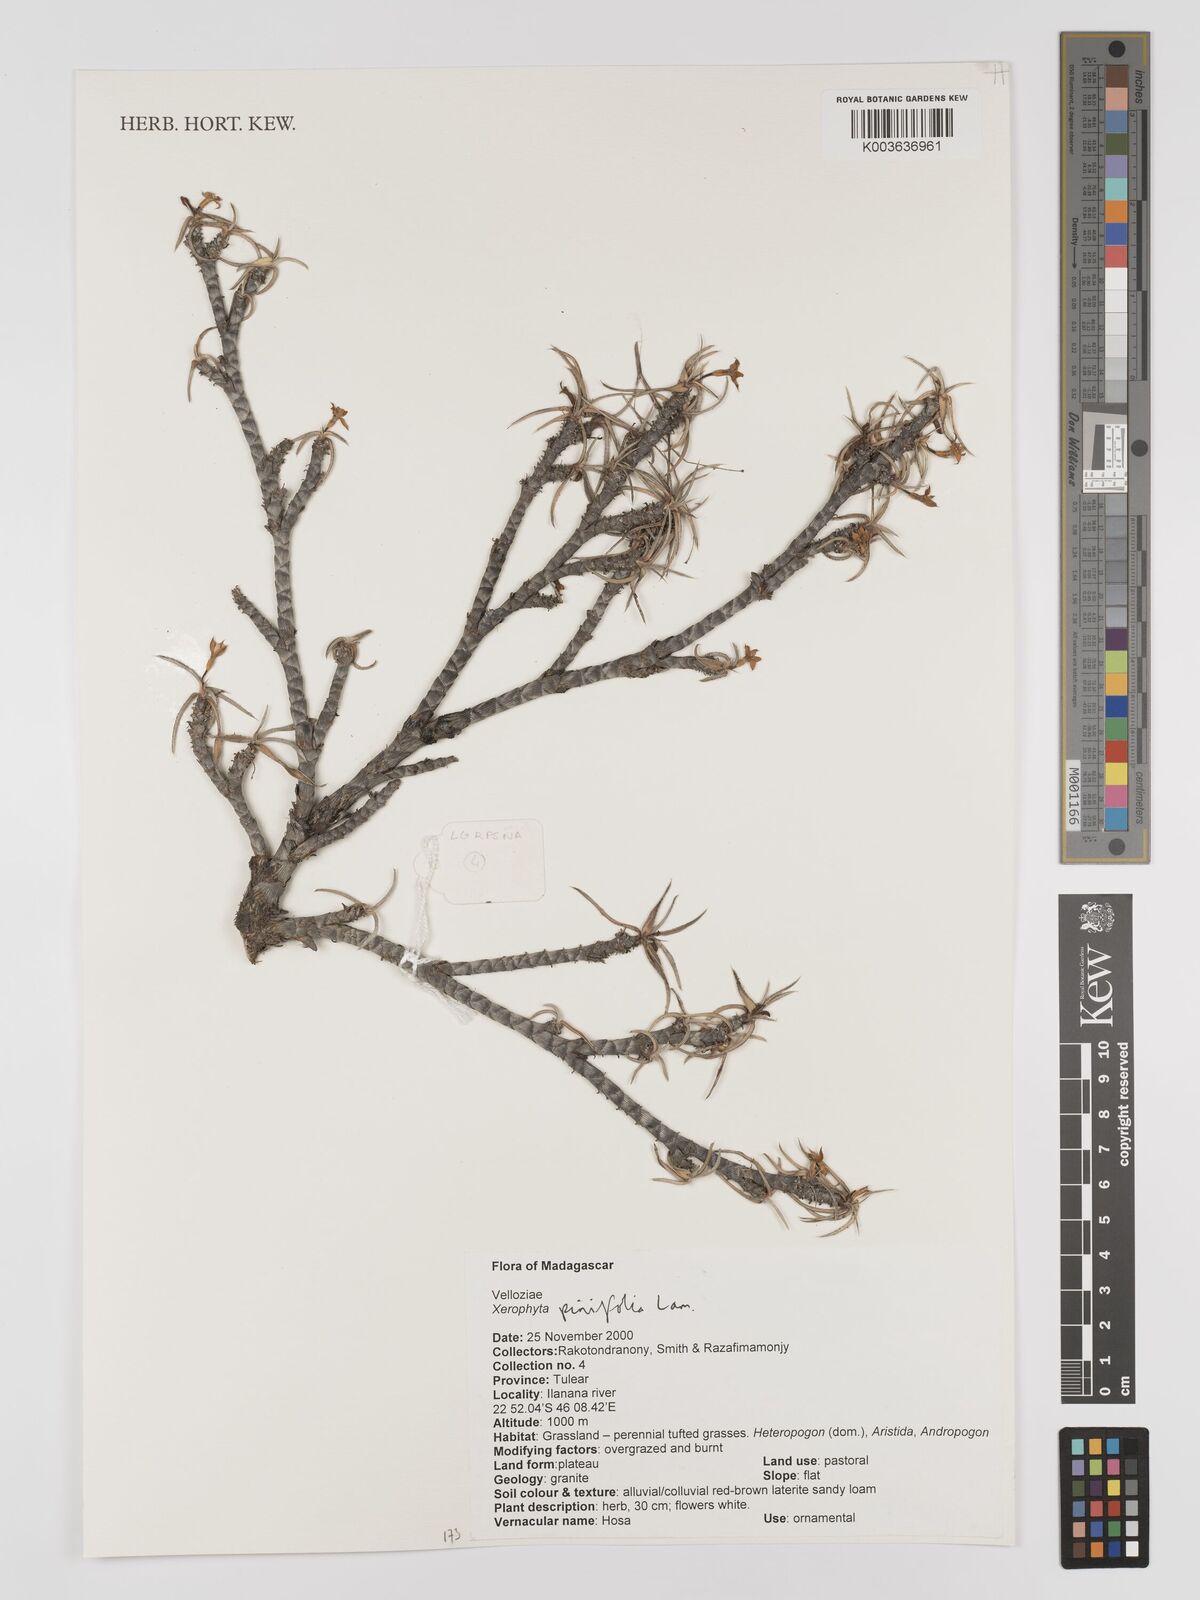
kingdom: Plantae
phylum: Tracheophyta
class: Liliopsida
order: Pandanales
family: Velloziaceae
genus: Xerophyta
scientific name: Xerophyta
